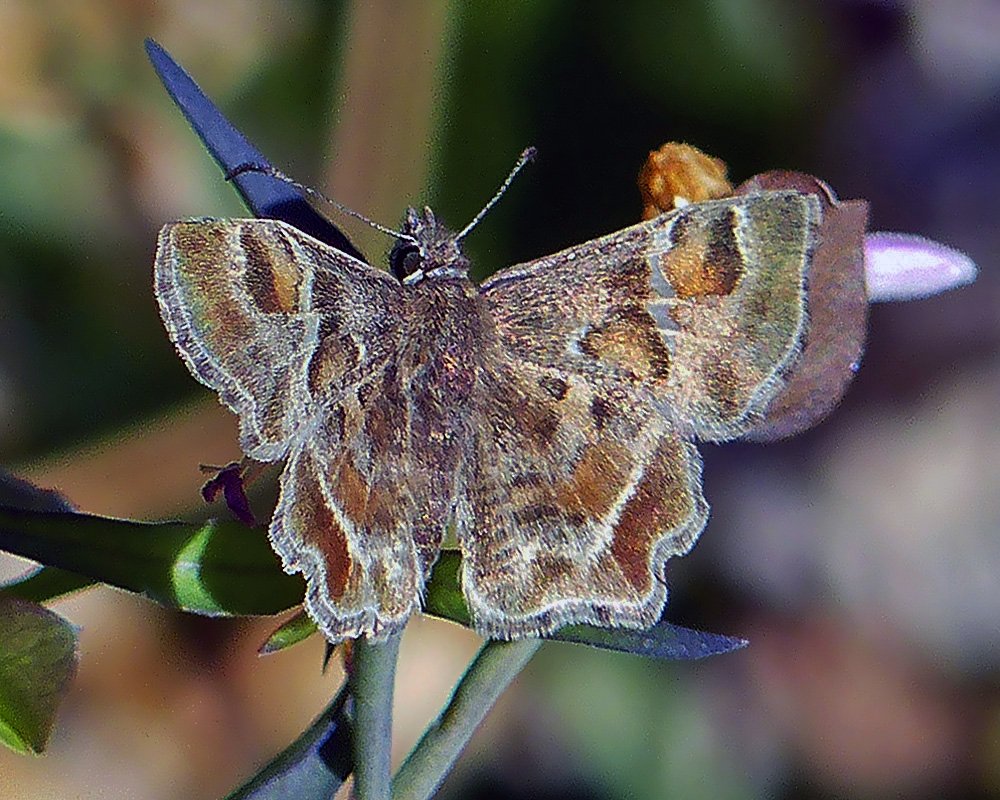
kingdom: Animalia
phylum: Arthropoda
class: Insecta
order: Lepidoptera
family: Hesperiidae
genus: Systasea
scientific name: Systasea zampa
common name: Arizona Powdered-Skipper
